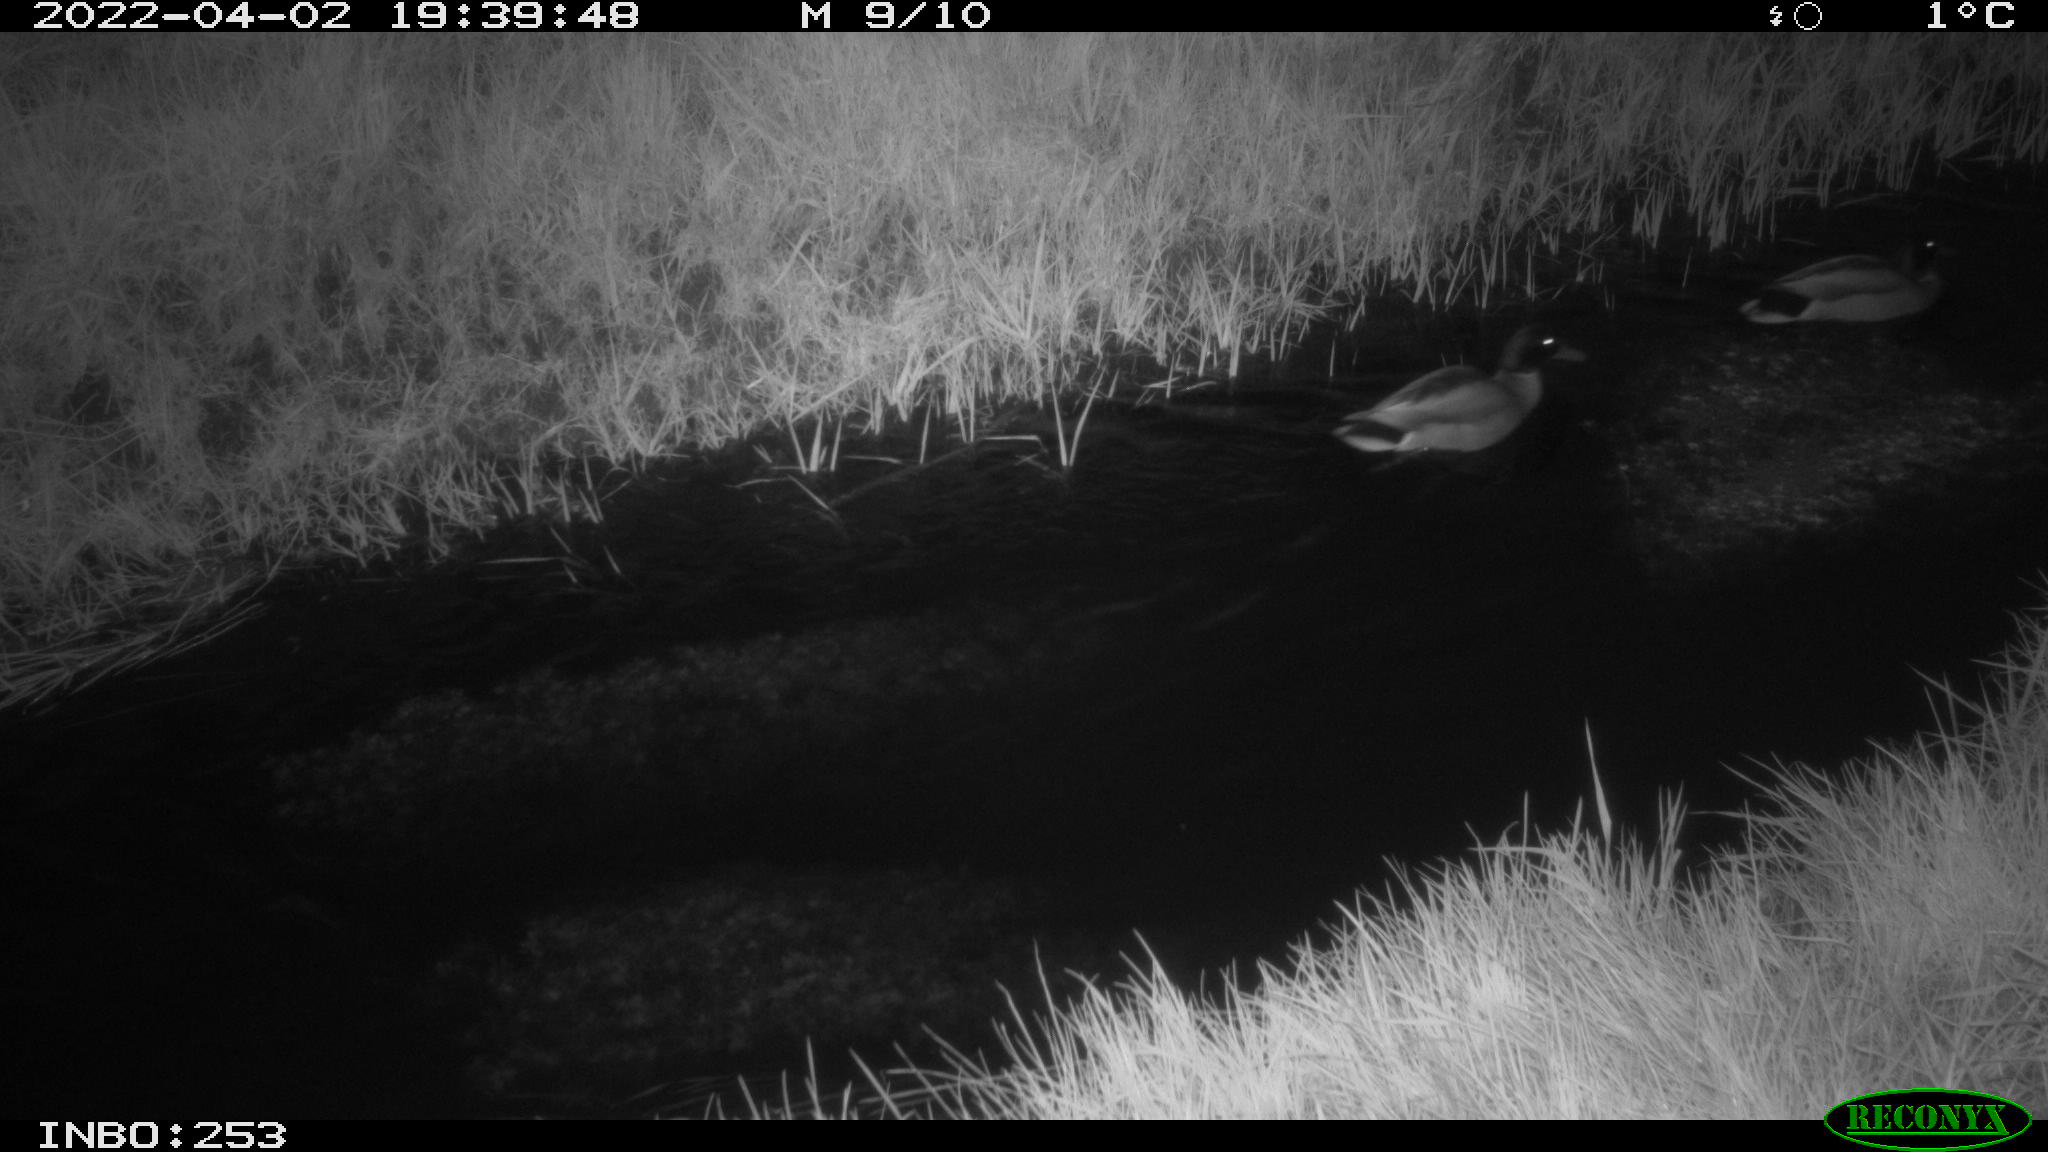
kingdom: Animalia
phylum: Chordata
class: Aves
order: Anseriformes
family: Anatidae
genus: Anas
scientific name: Anas platyrhynchos
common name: Mallard
